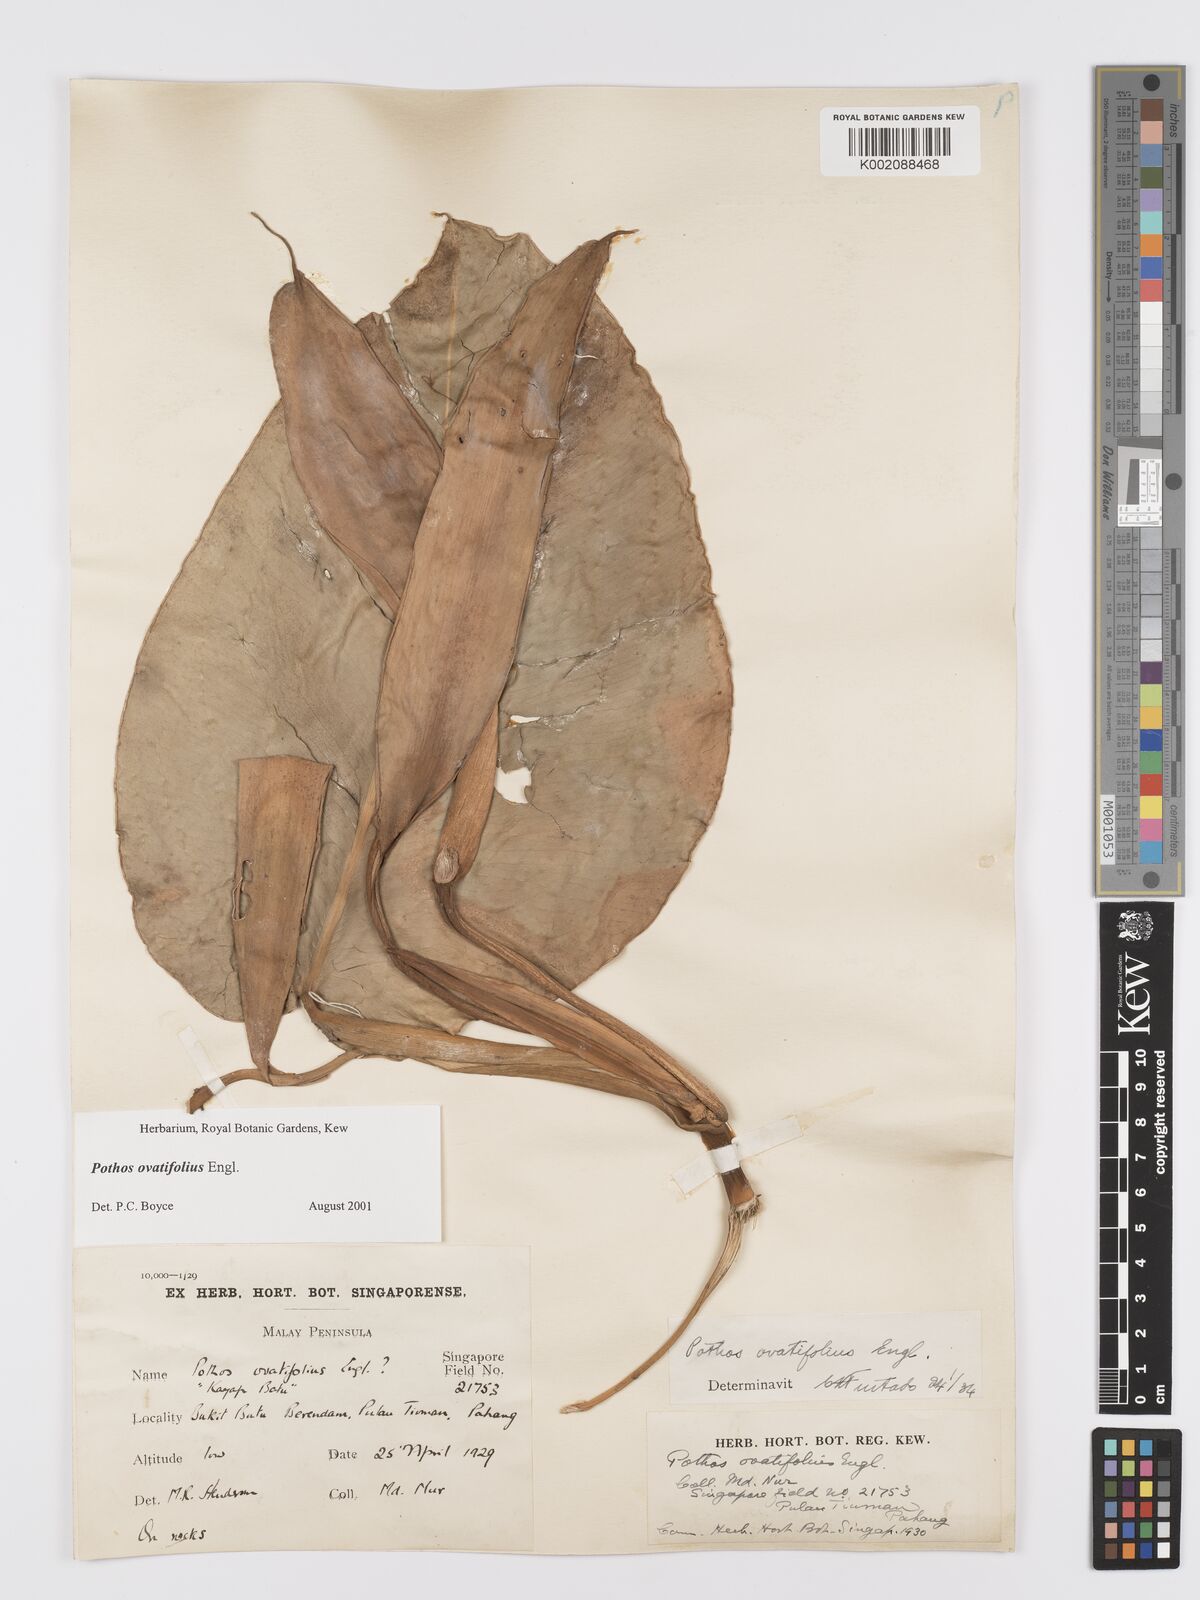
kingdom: Plantae
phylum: Tracheophyta
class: Liliopsida
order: Alismatales
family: Araceae
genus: Pothos
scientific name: Pothos ovatifolius
